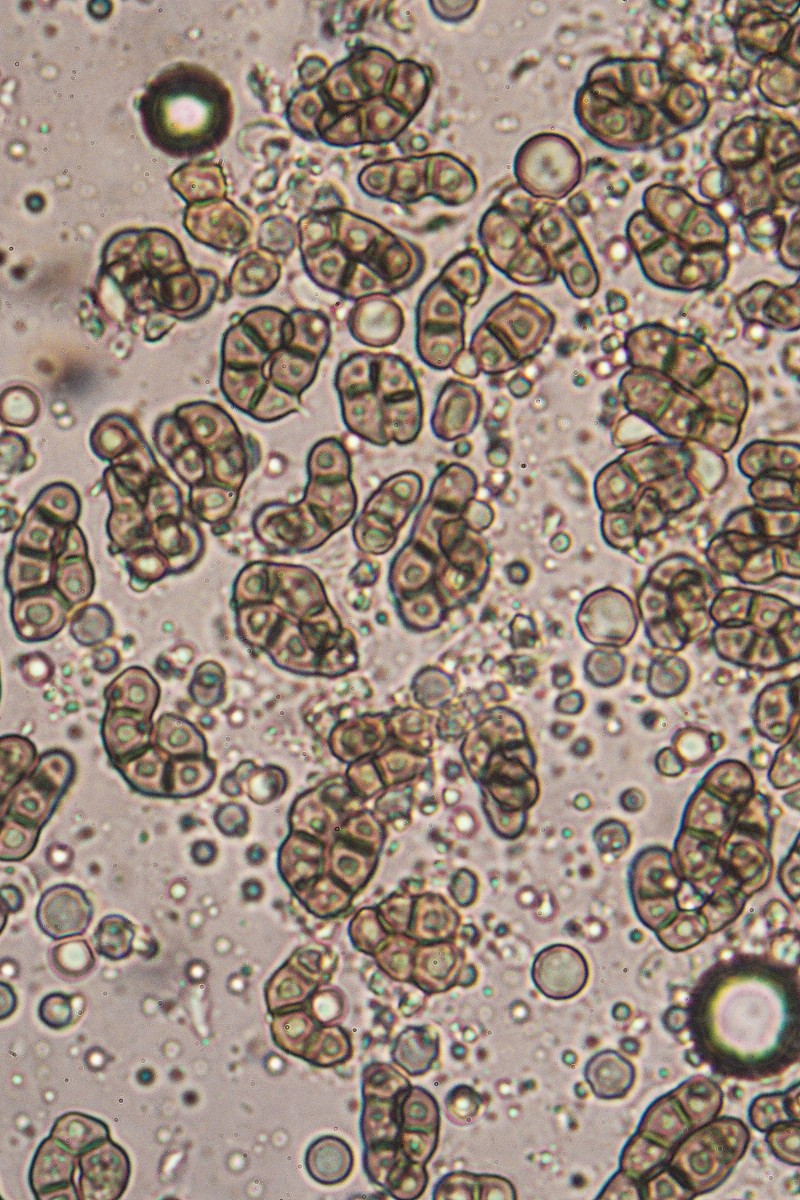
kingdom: Fungi
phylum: Ascomycota
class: Leotiomycetes
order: Helotiales
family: Hyaloscyphaceae
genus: Eupezizella
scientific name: Eupezizella aureliella
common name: almindelig klarskive
